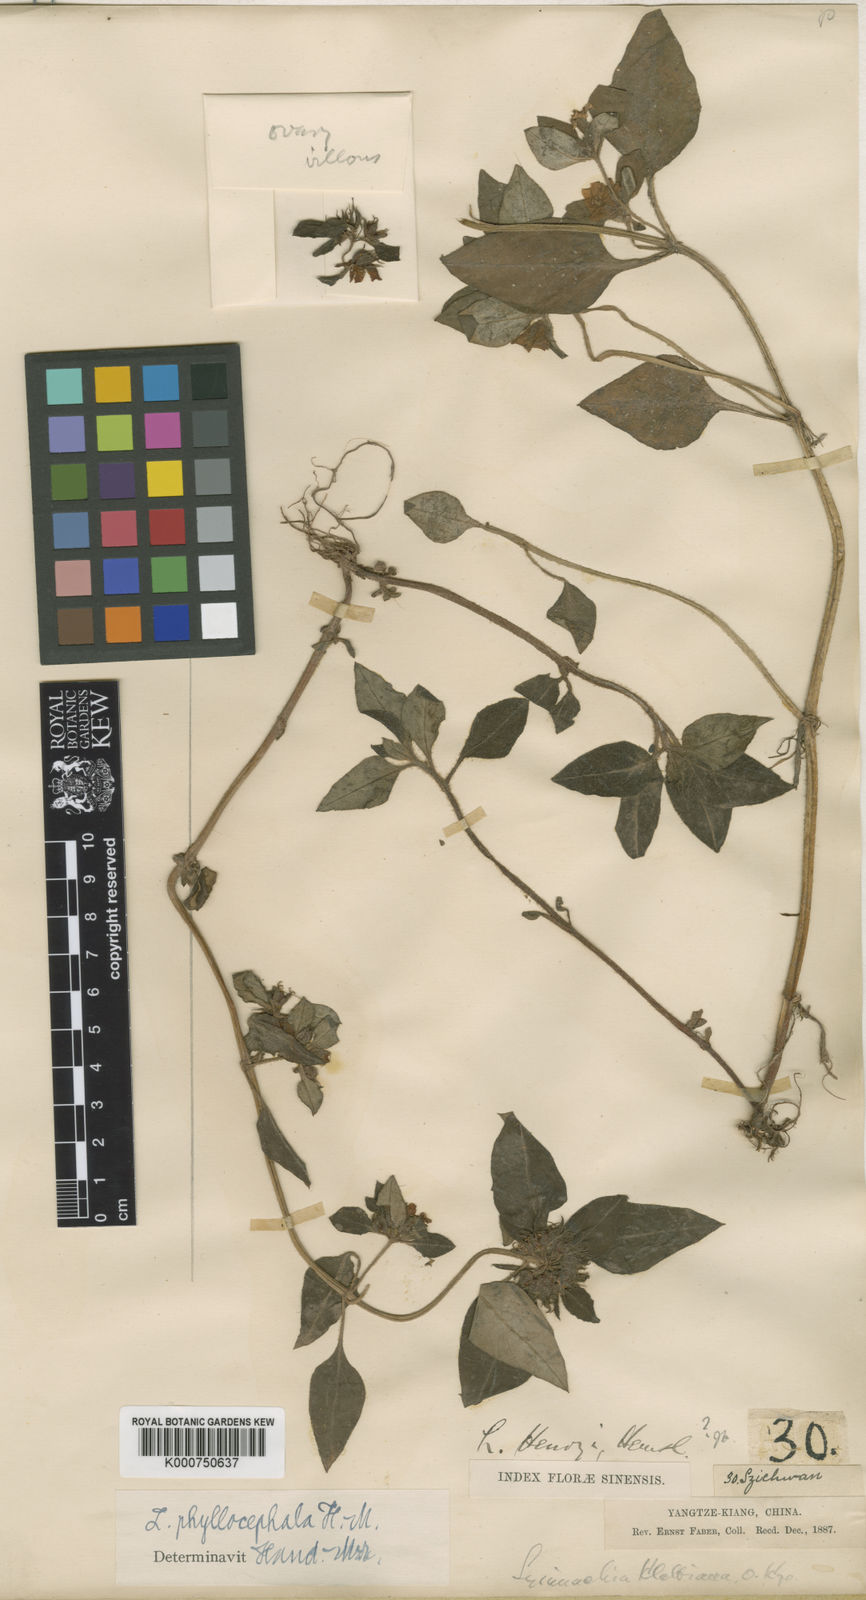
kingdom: Plantae
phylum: Tracheophyta
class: Magnoliopsida
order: Ericales
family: Primulaceae
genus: Lysimachia
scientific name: Lysimachia phyllocephala
